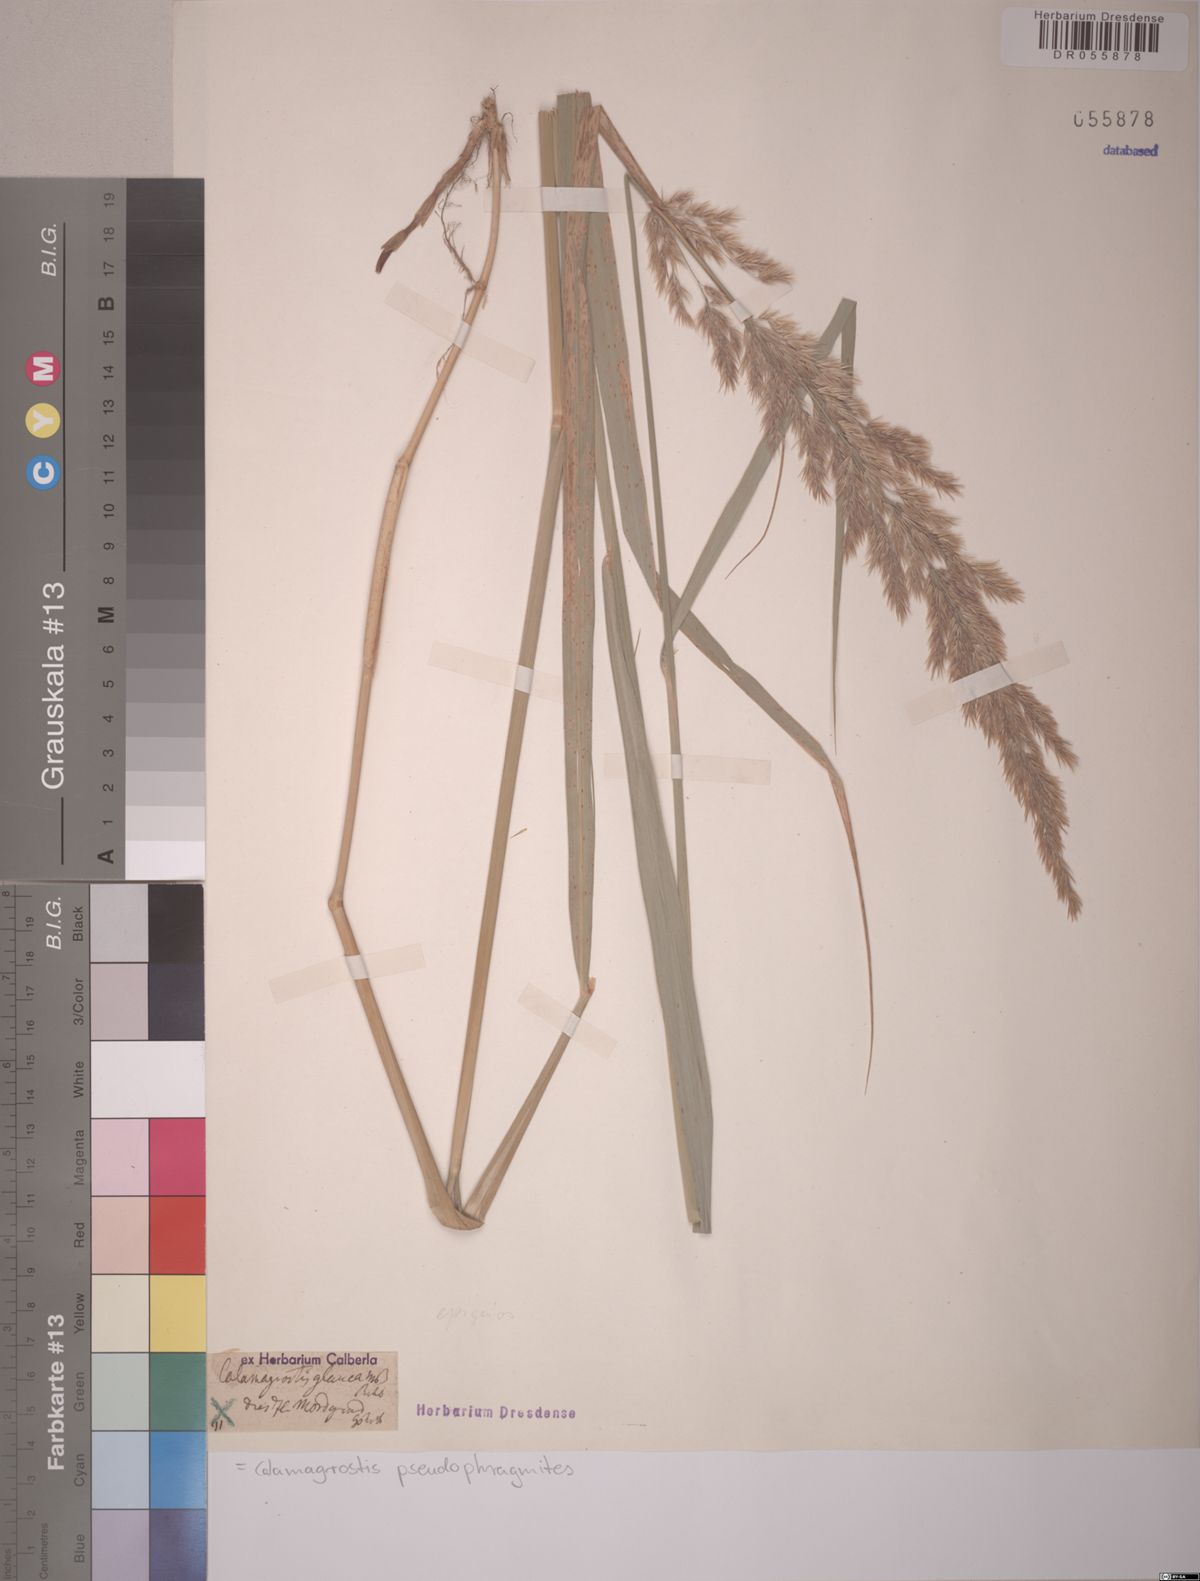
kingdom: Plantae
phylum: Tracheophyta
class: Liliopsida
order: Poales
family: Poaceae
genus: Calamagrostis
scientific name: Calamagrostis pseudophragmites
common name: Coastal small-reed
